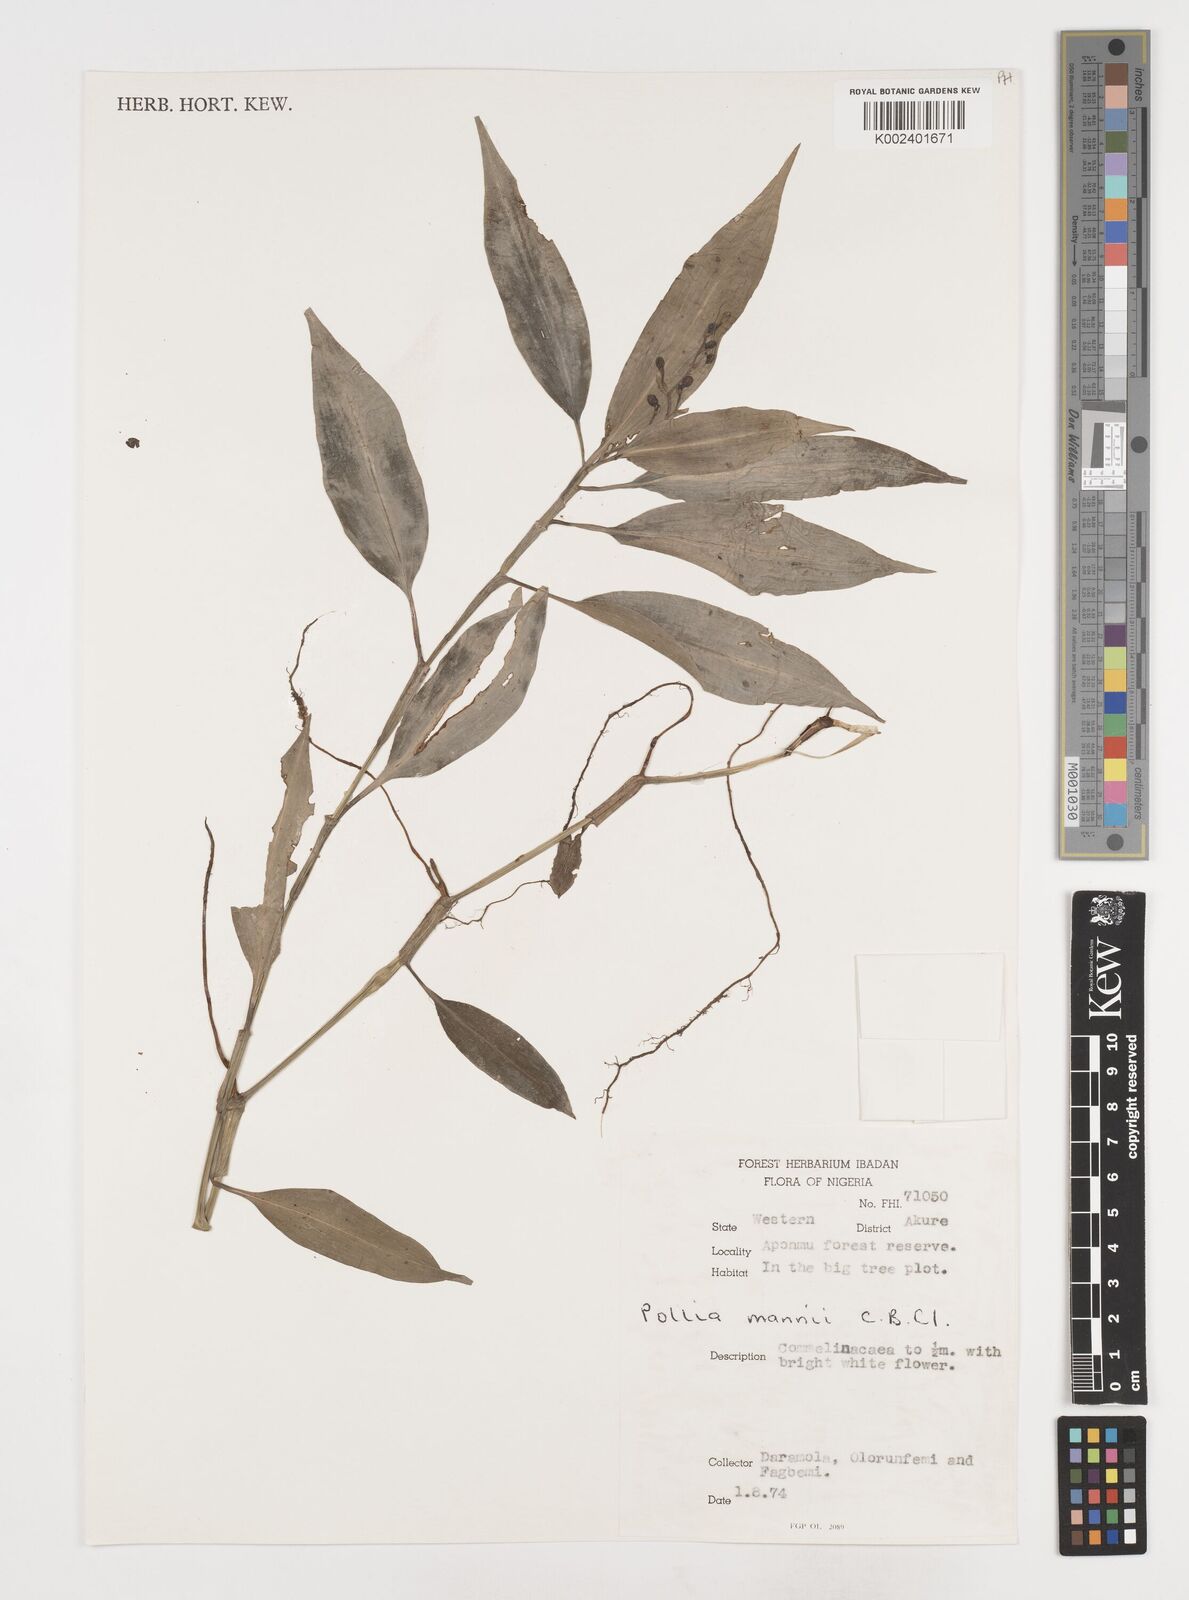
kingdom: Plantae
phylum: Tracheophyta
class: Liliopsida
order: Commelinales
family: Commelinaceae
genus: Pollia
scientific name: Pollia mannii
